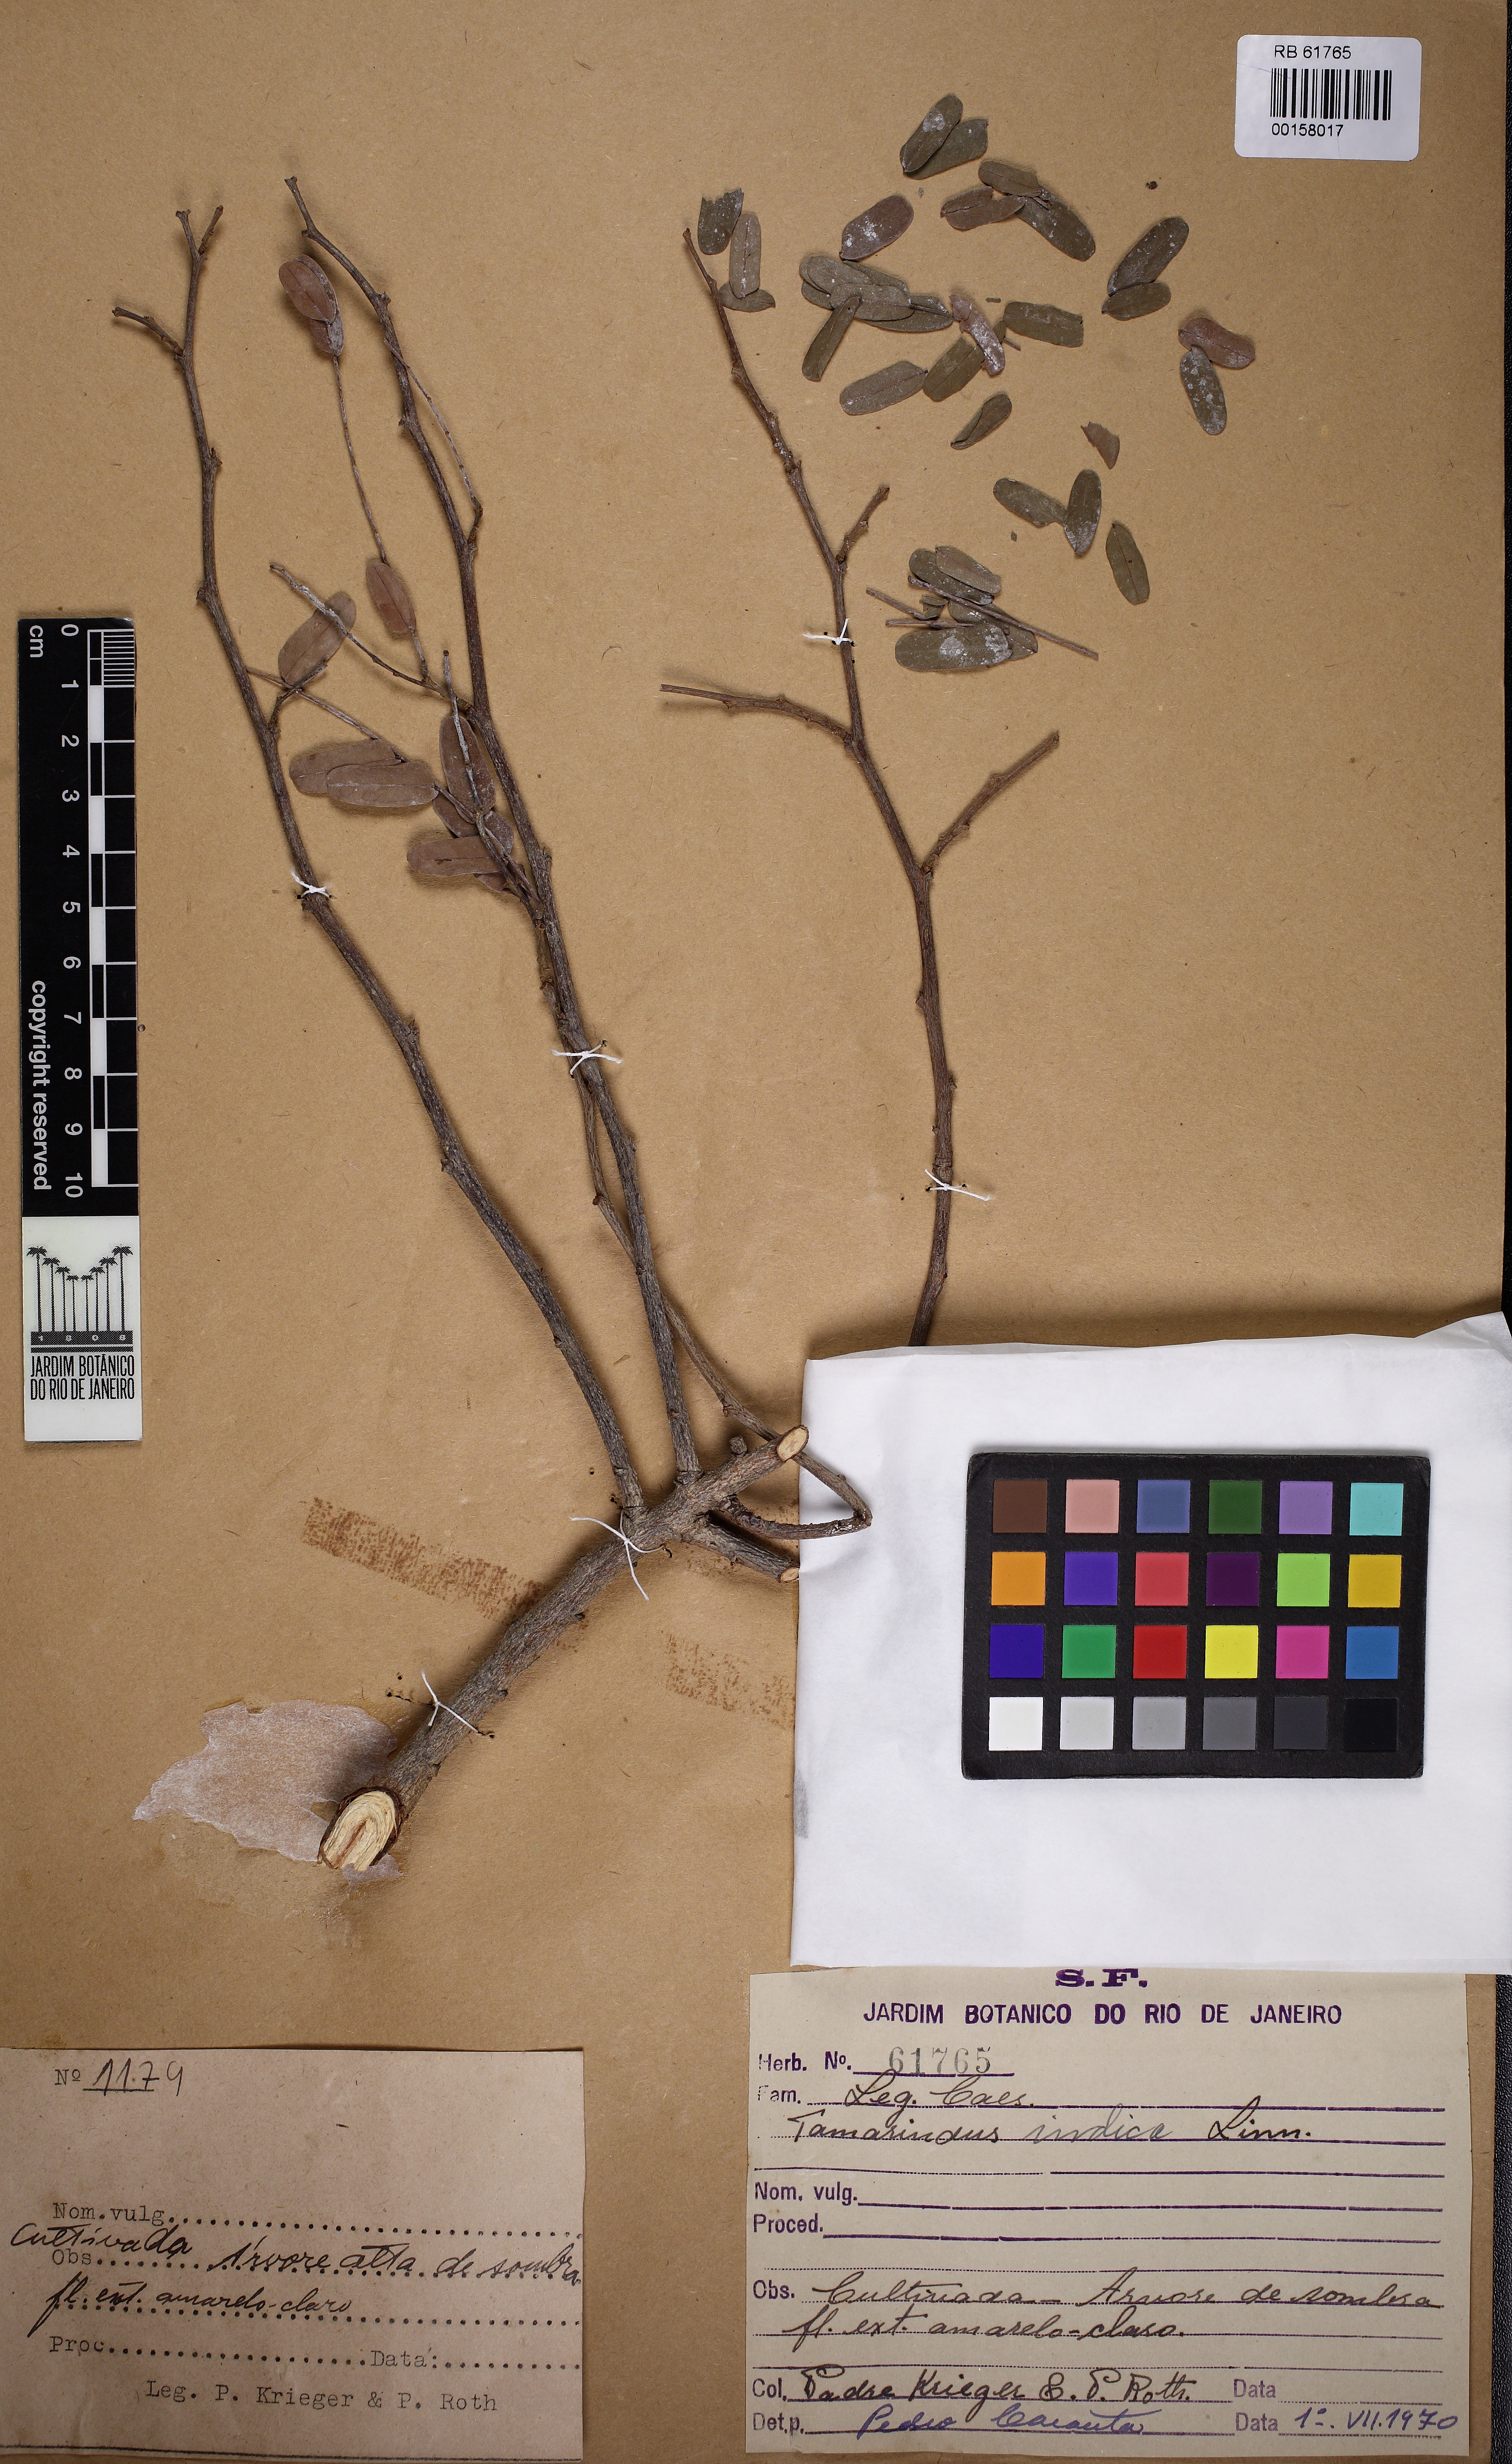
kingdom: Plantae
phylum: Tracheophyta
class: Magnoliopsida
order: Fabales
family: Fabaceae
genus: Tamarindus
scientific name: Tamarindus indica
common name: Tamarind
